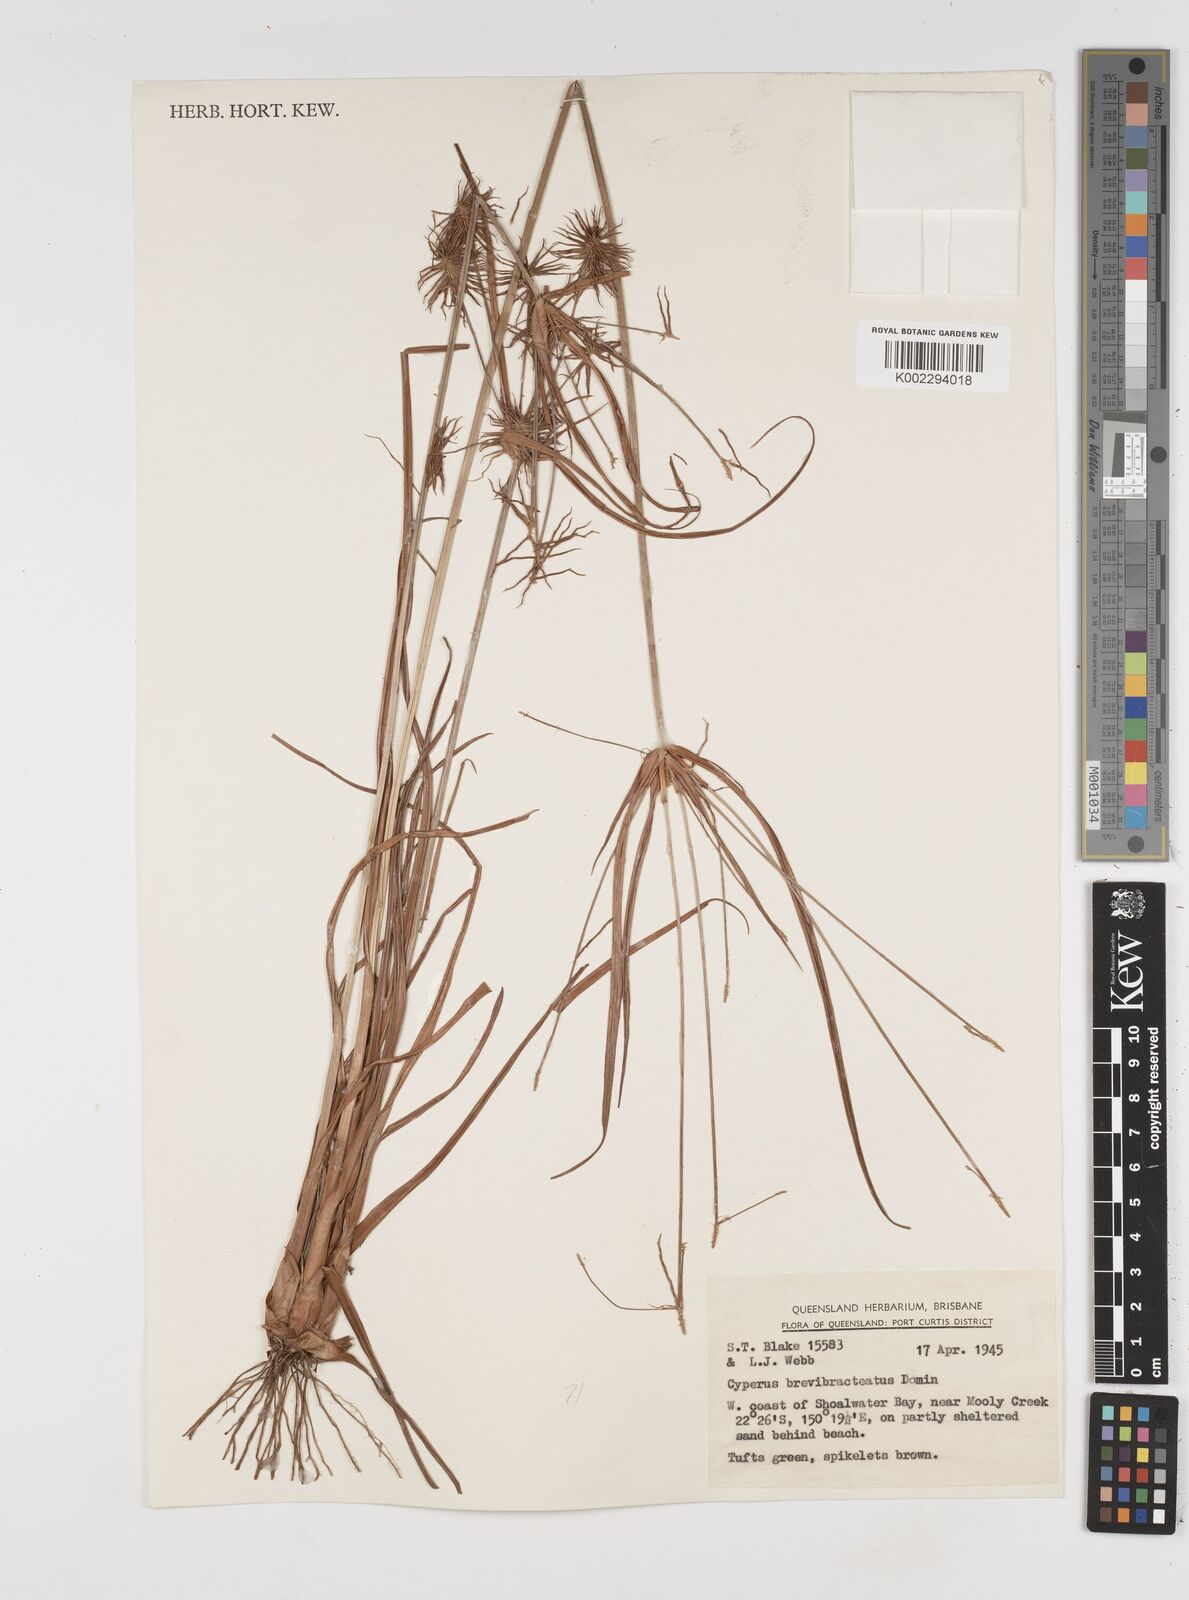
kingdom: Plantae
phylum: Tracheophyta
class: Liliopsida
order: Poales
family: Cyperaceae
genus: Cyperus
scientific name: Cyperus dietrichiae
